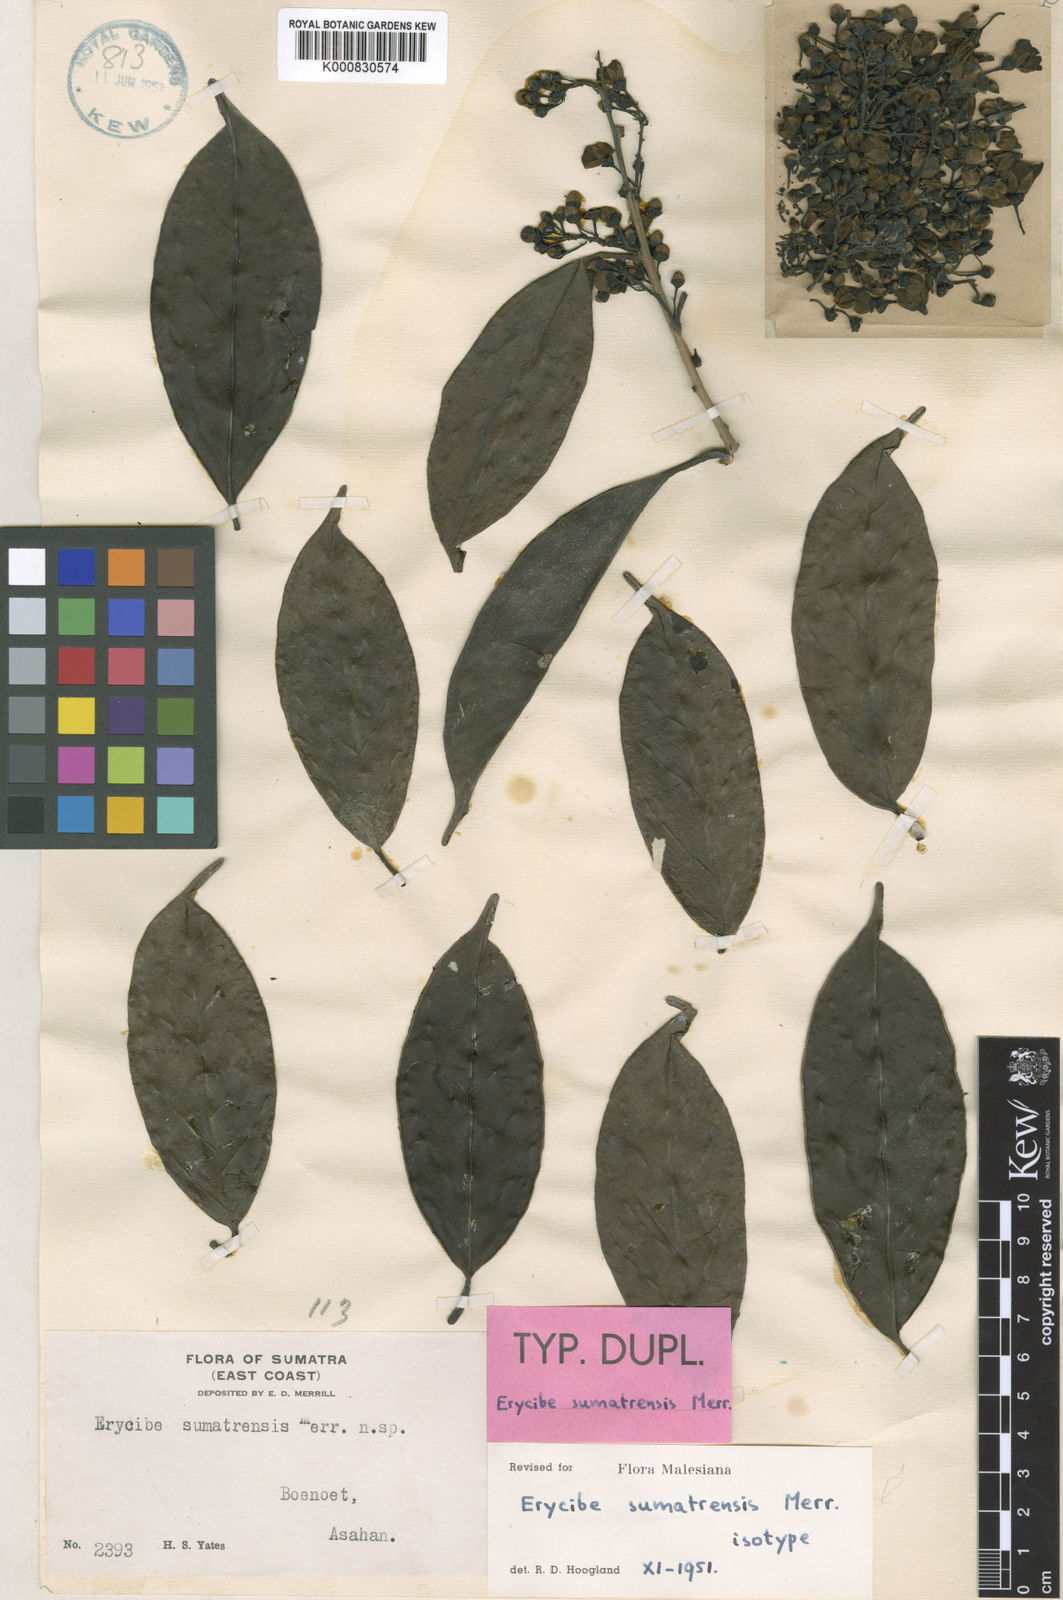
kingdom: Plantae
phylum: Tracheophyta
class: Magnoliopsida
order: Solanales
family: Convolvulaceae
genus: Erycibe
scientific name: Erycibe sumatrensis
